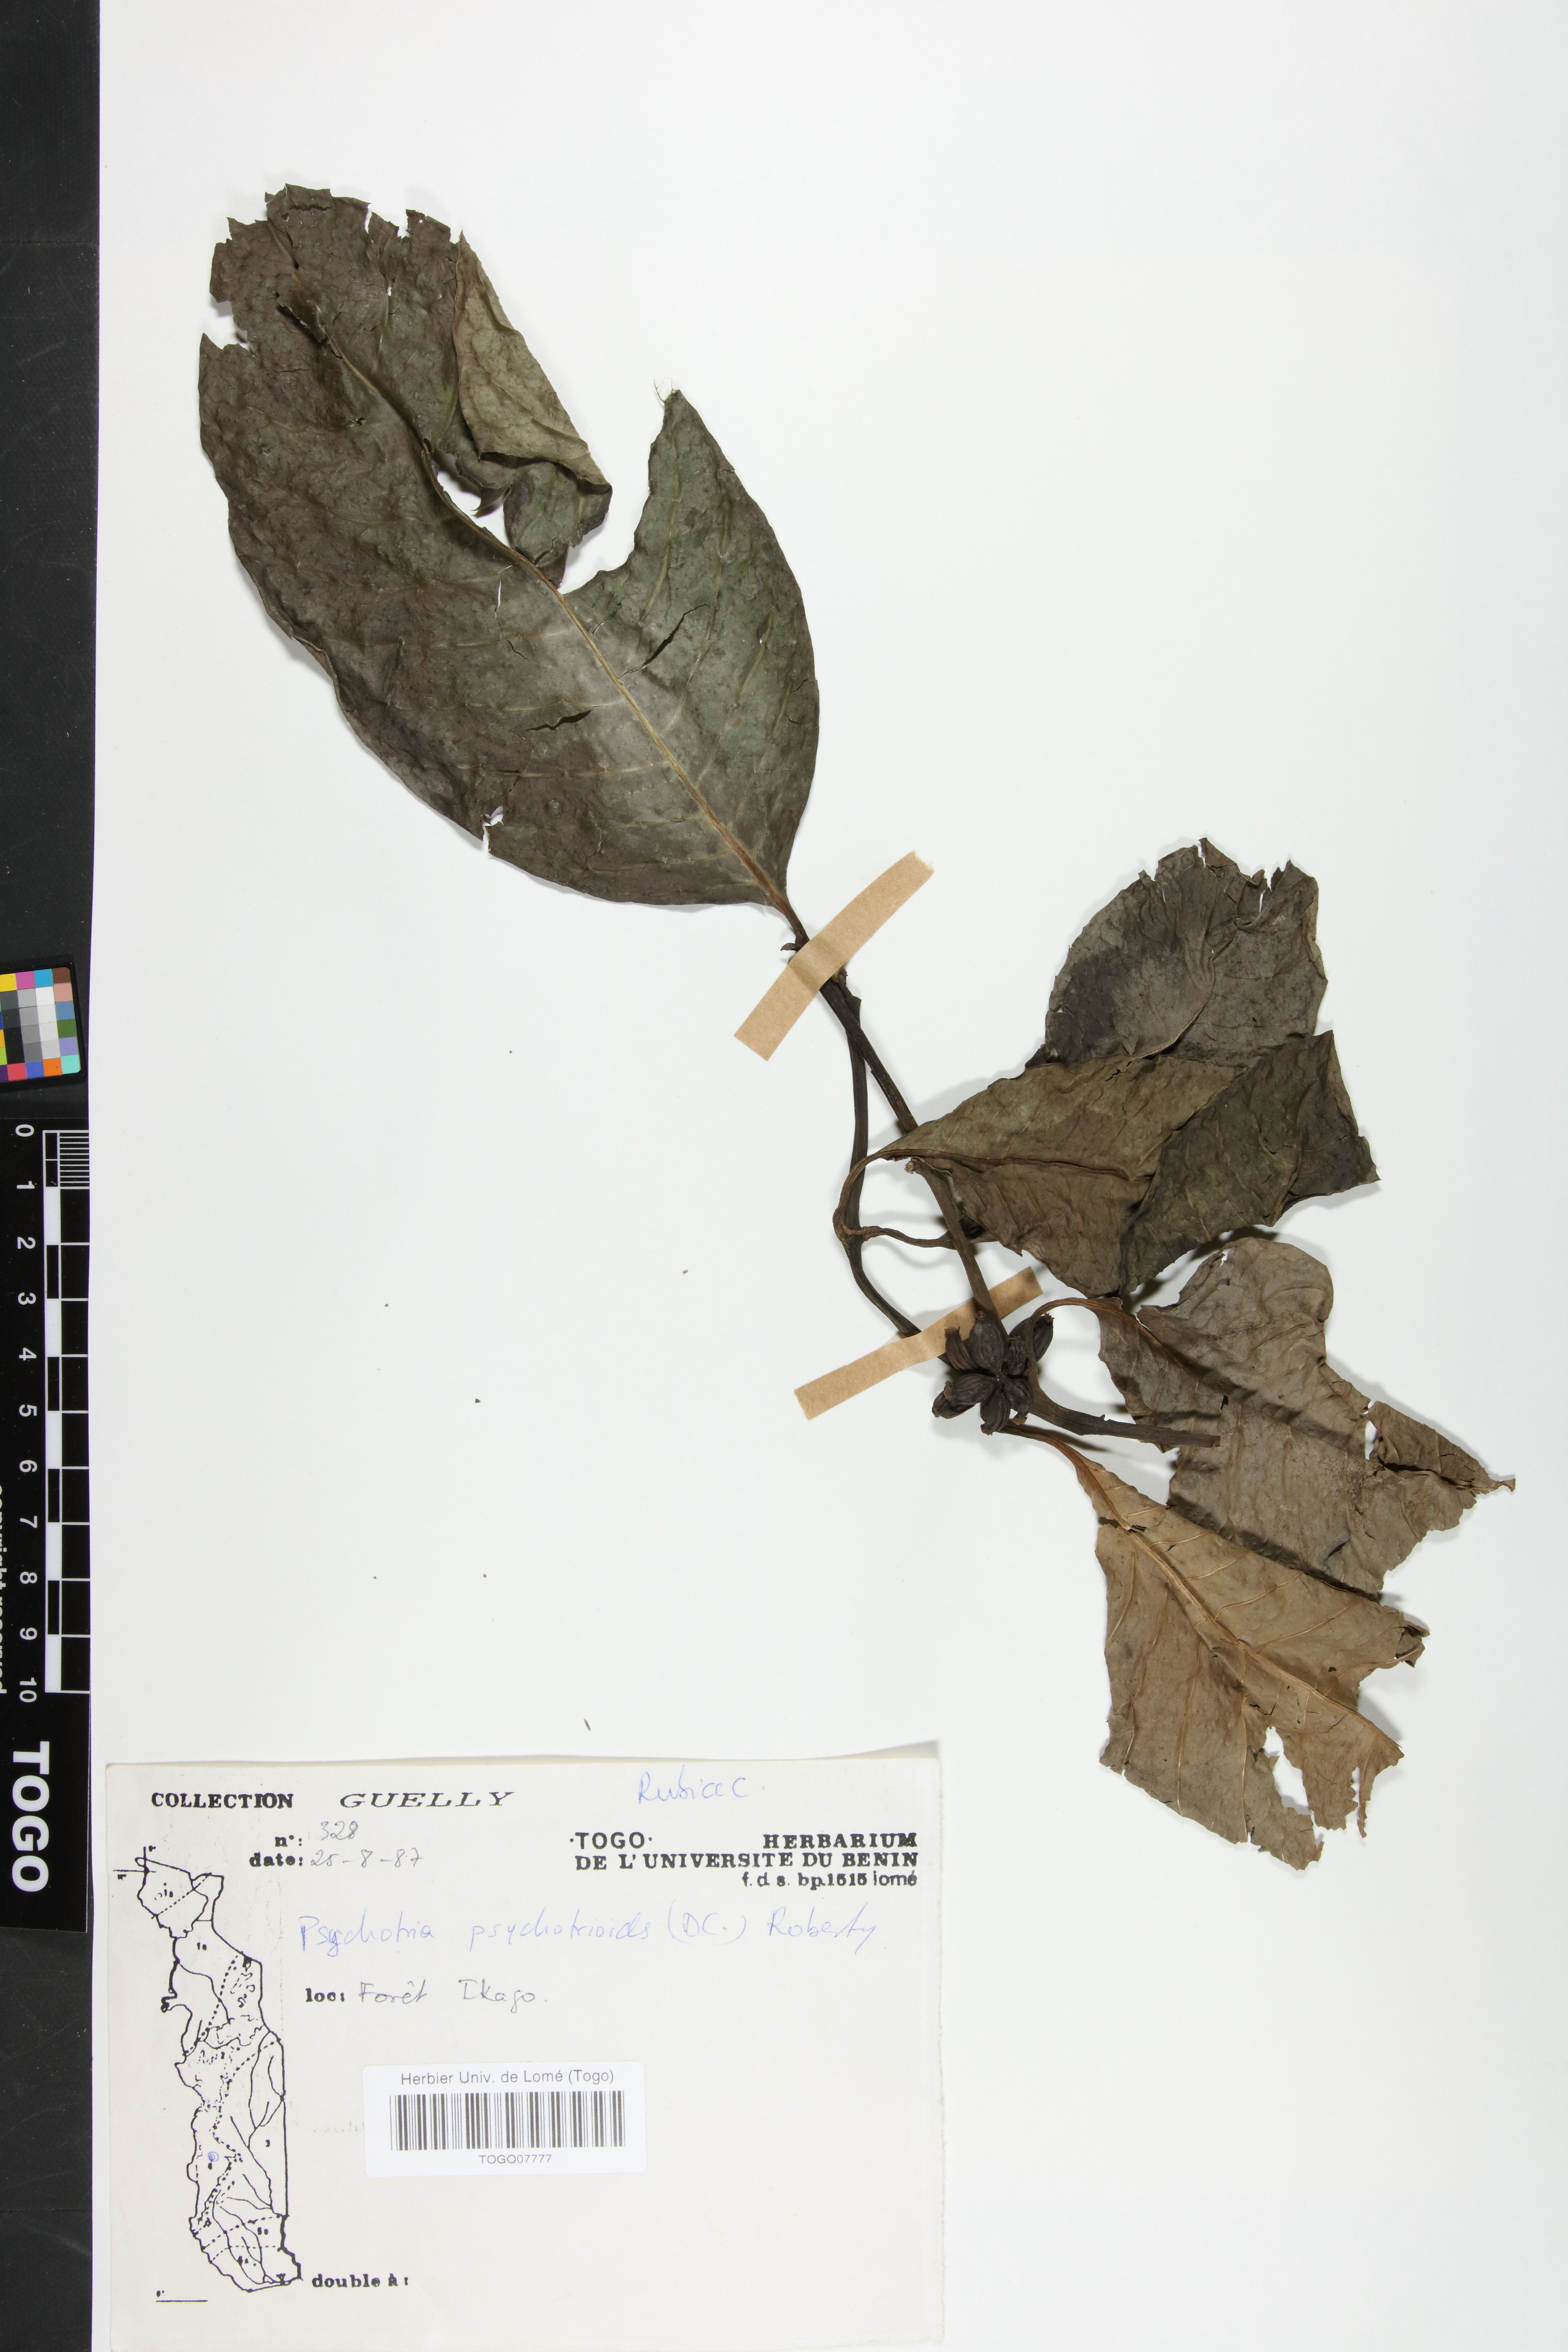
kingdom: Plantae
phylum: Tracheophyta
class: Magnoliopsida
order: Gentianales
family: Rubiaceae
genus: Psychotria
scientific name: Psychotria psychotrioides
